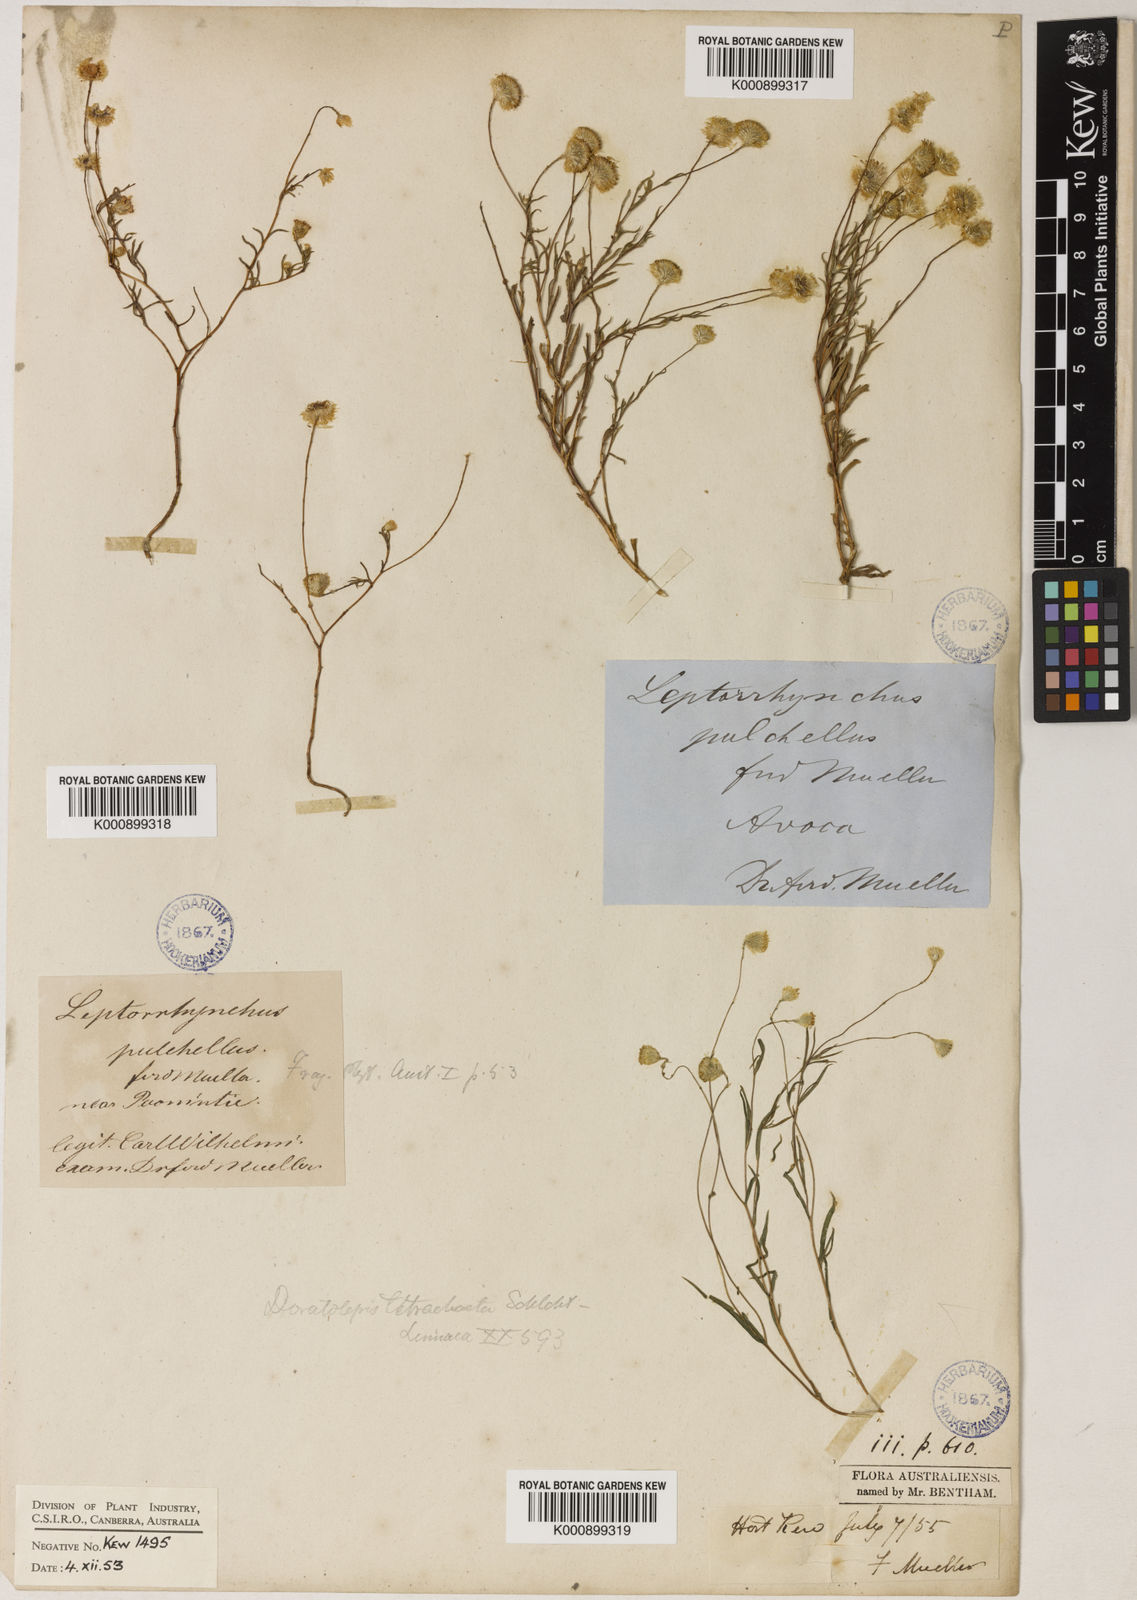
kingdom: Plantae
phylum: Tracheophyta
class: Magnoliopsida
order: Asterales
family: Asteraceae
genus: Leptorhynchos
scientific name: Leptorhynchos tetrachaetus
